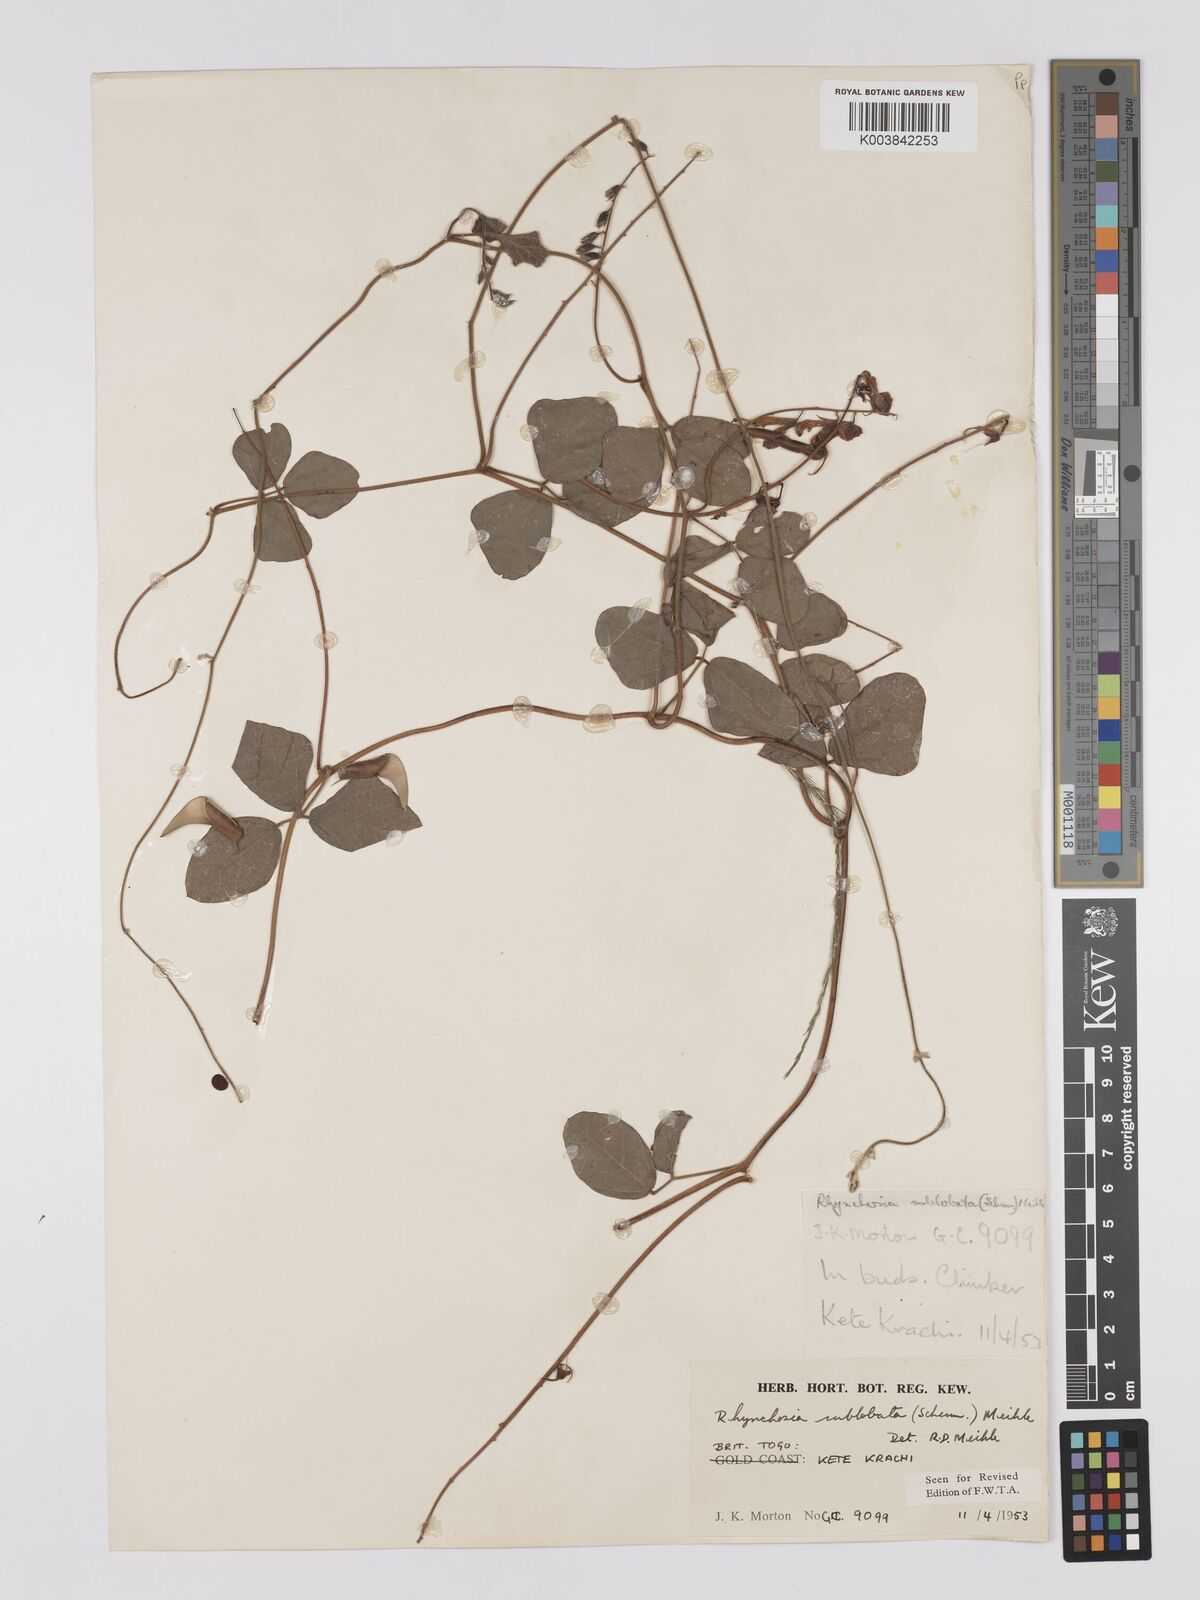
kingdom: Plantae
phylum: Tracheophyta
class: Magnoliopsida
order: Fabales
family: Fabaceae
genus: Rhynchosia
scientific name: Rhynchosia sublobata
